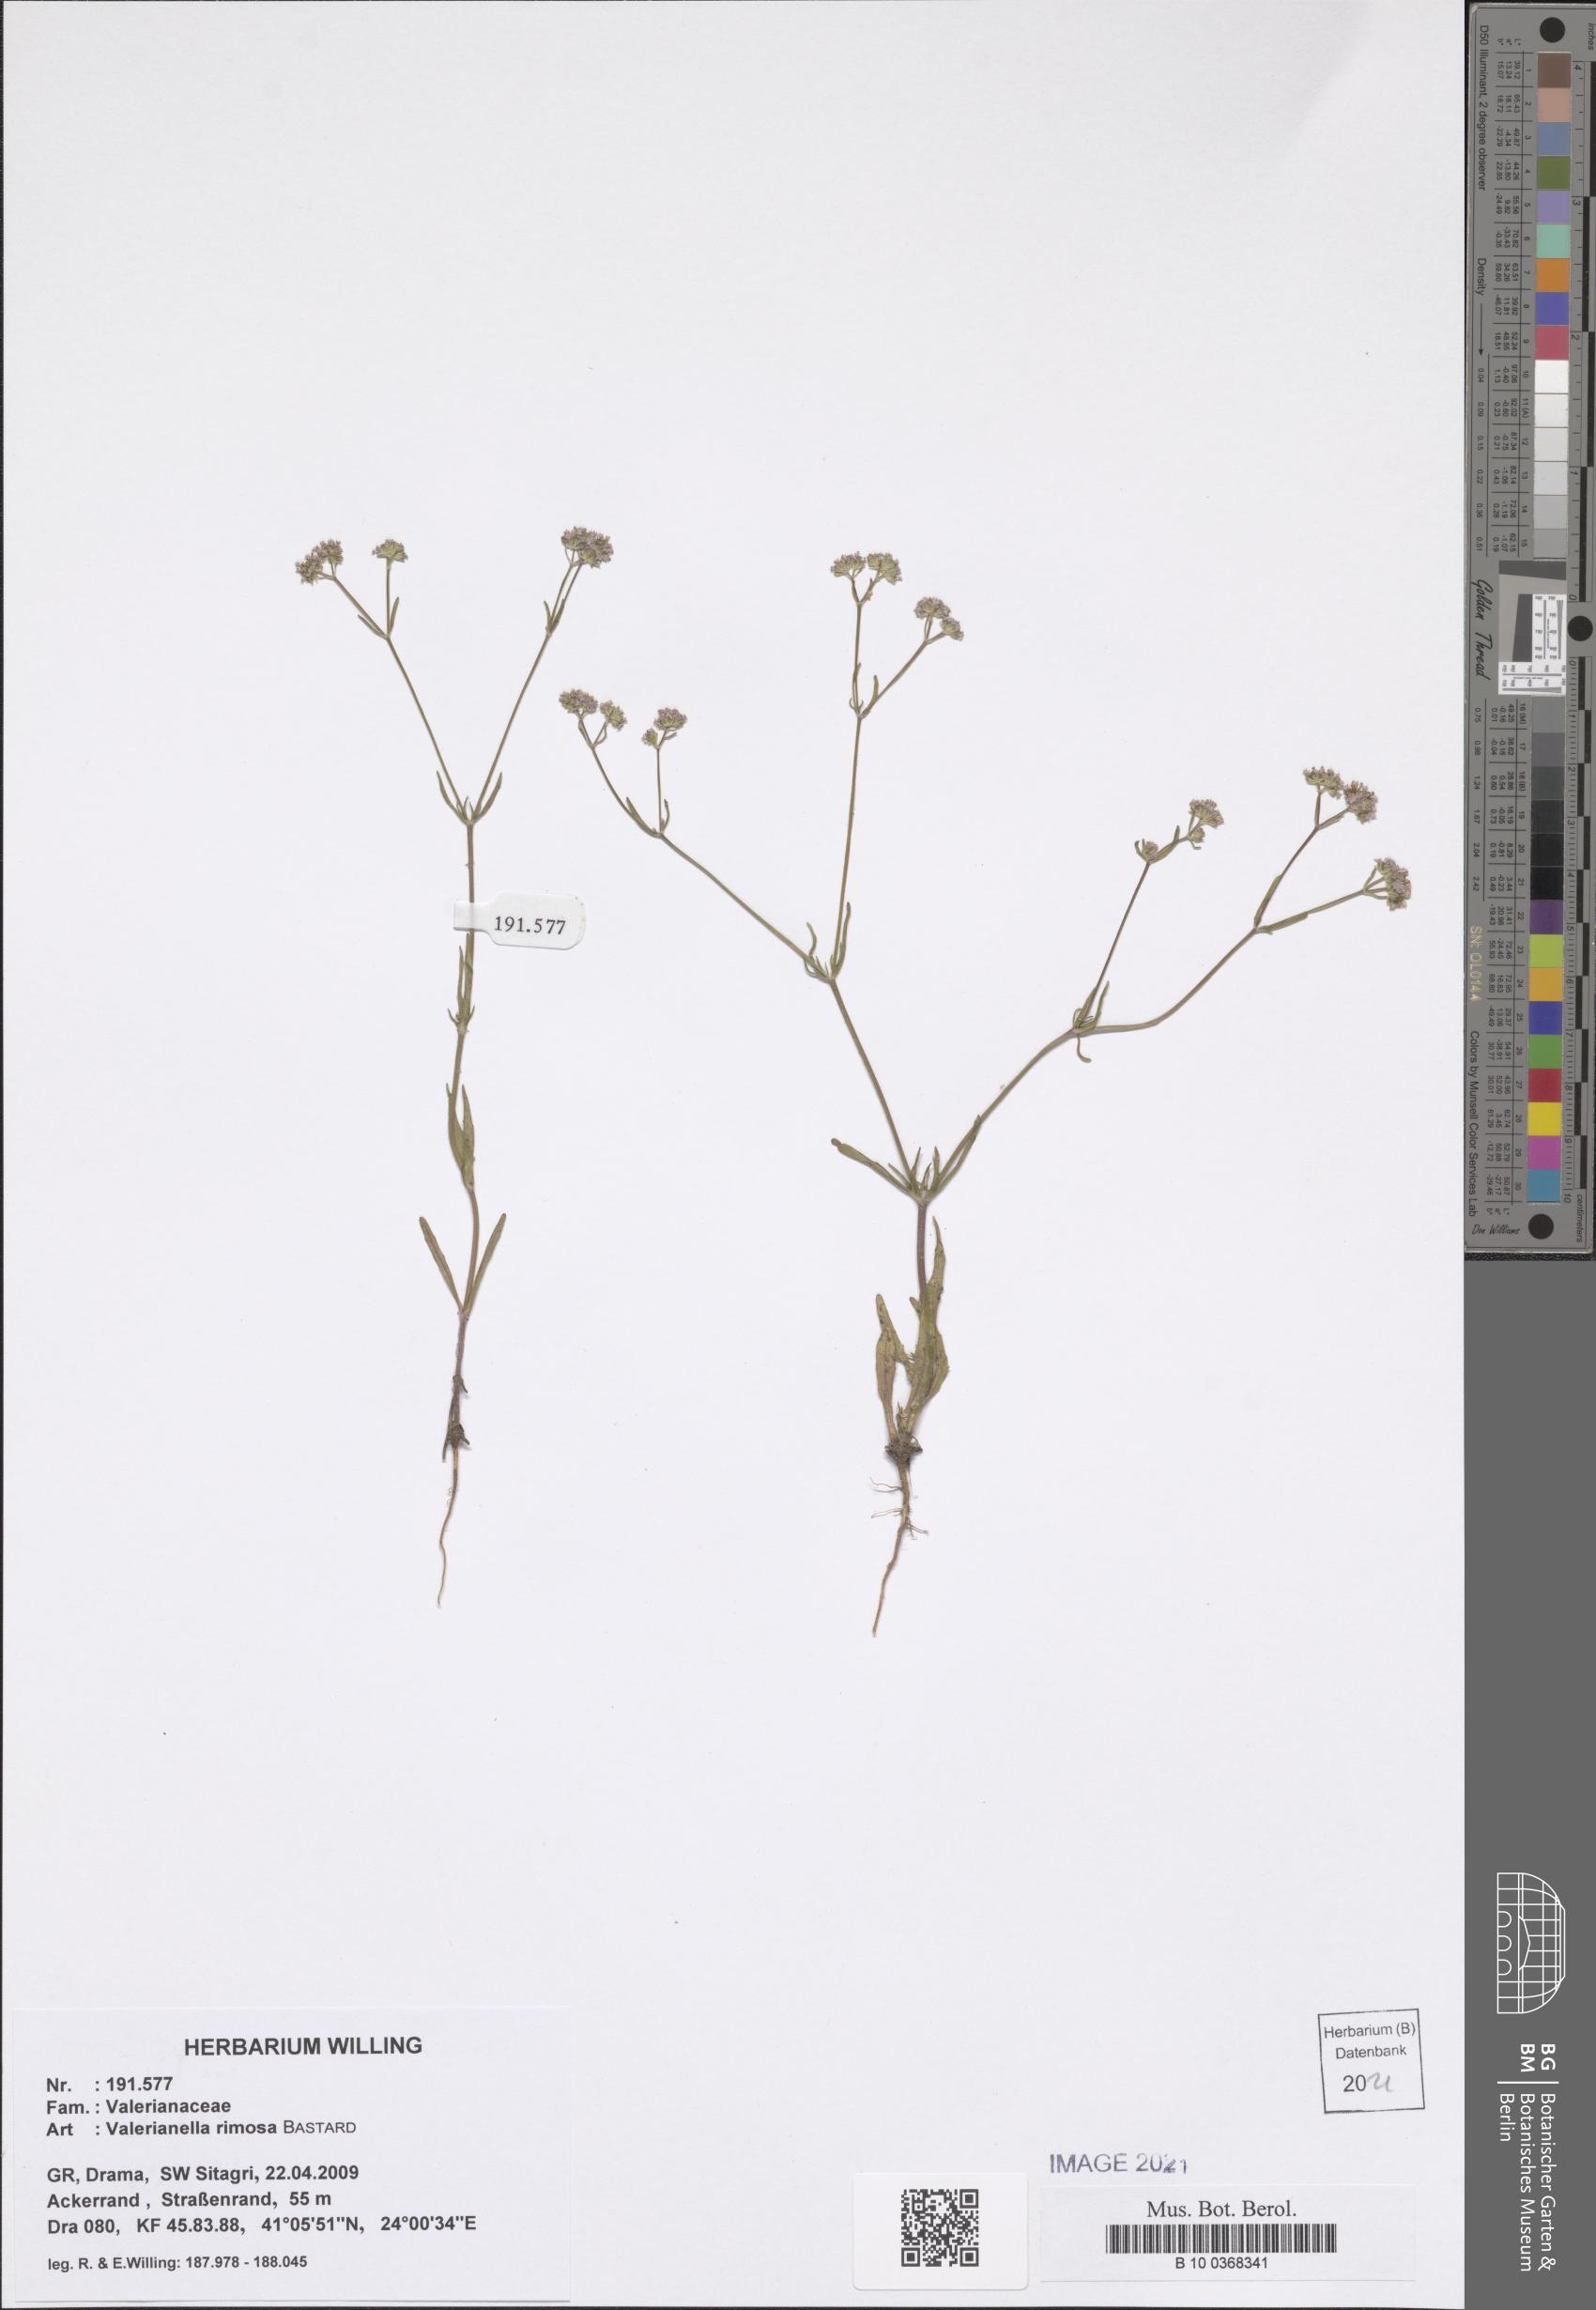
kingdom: Plantae
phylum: Tracheophyta
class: Magnoliopsida
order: Dipsacales
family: Caprifoliaceae
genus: Valerianella
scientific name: Valerianella rimosa
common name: Broad-fruited cornsalad
